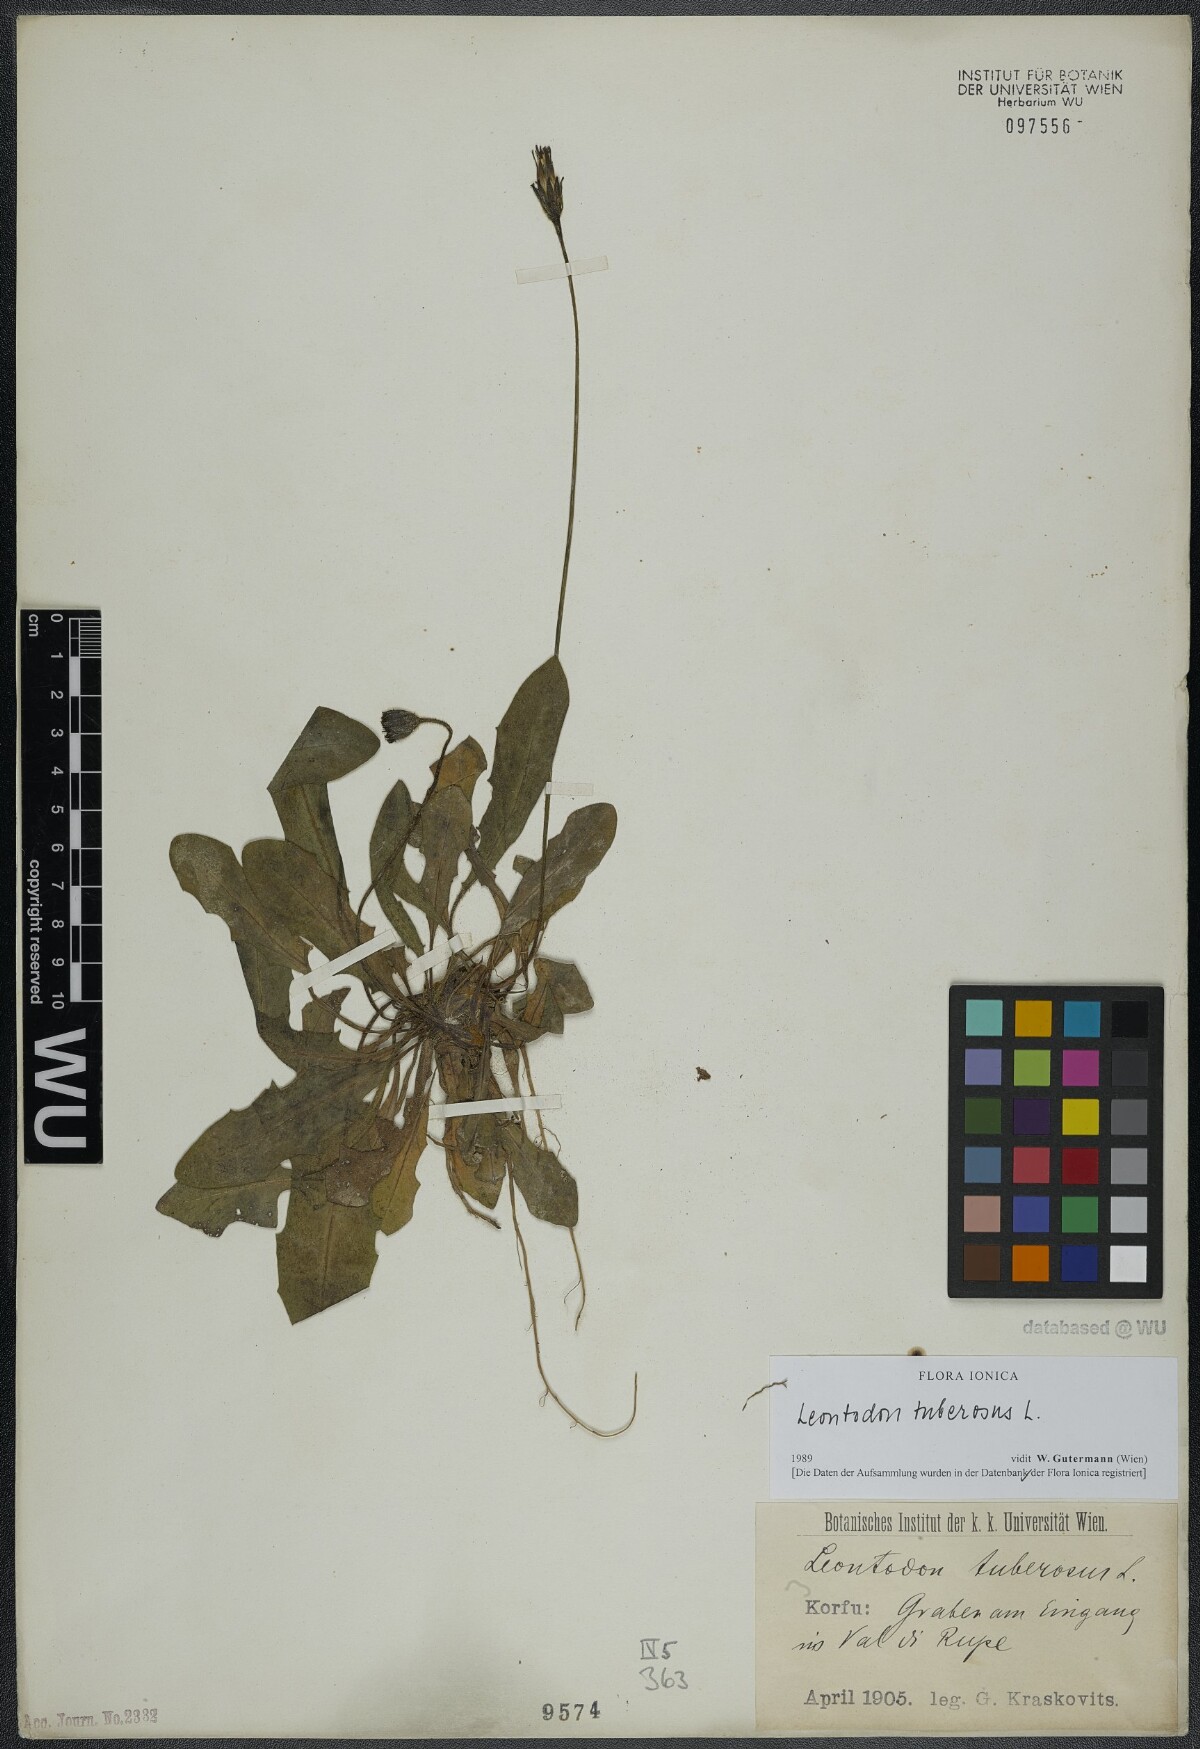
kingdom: Plantae
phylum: Tracheophyta
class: Magnoliopsida
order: Asterales
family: Asteraceae
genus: Thrincia
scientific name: Thrincia tuberosa
